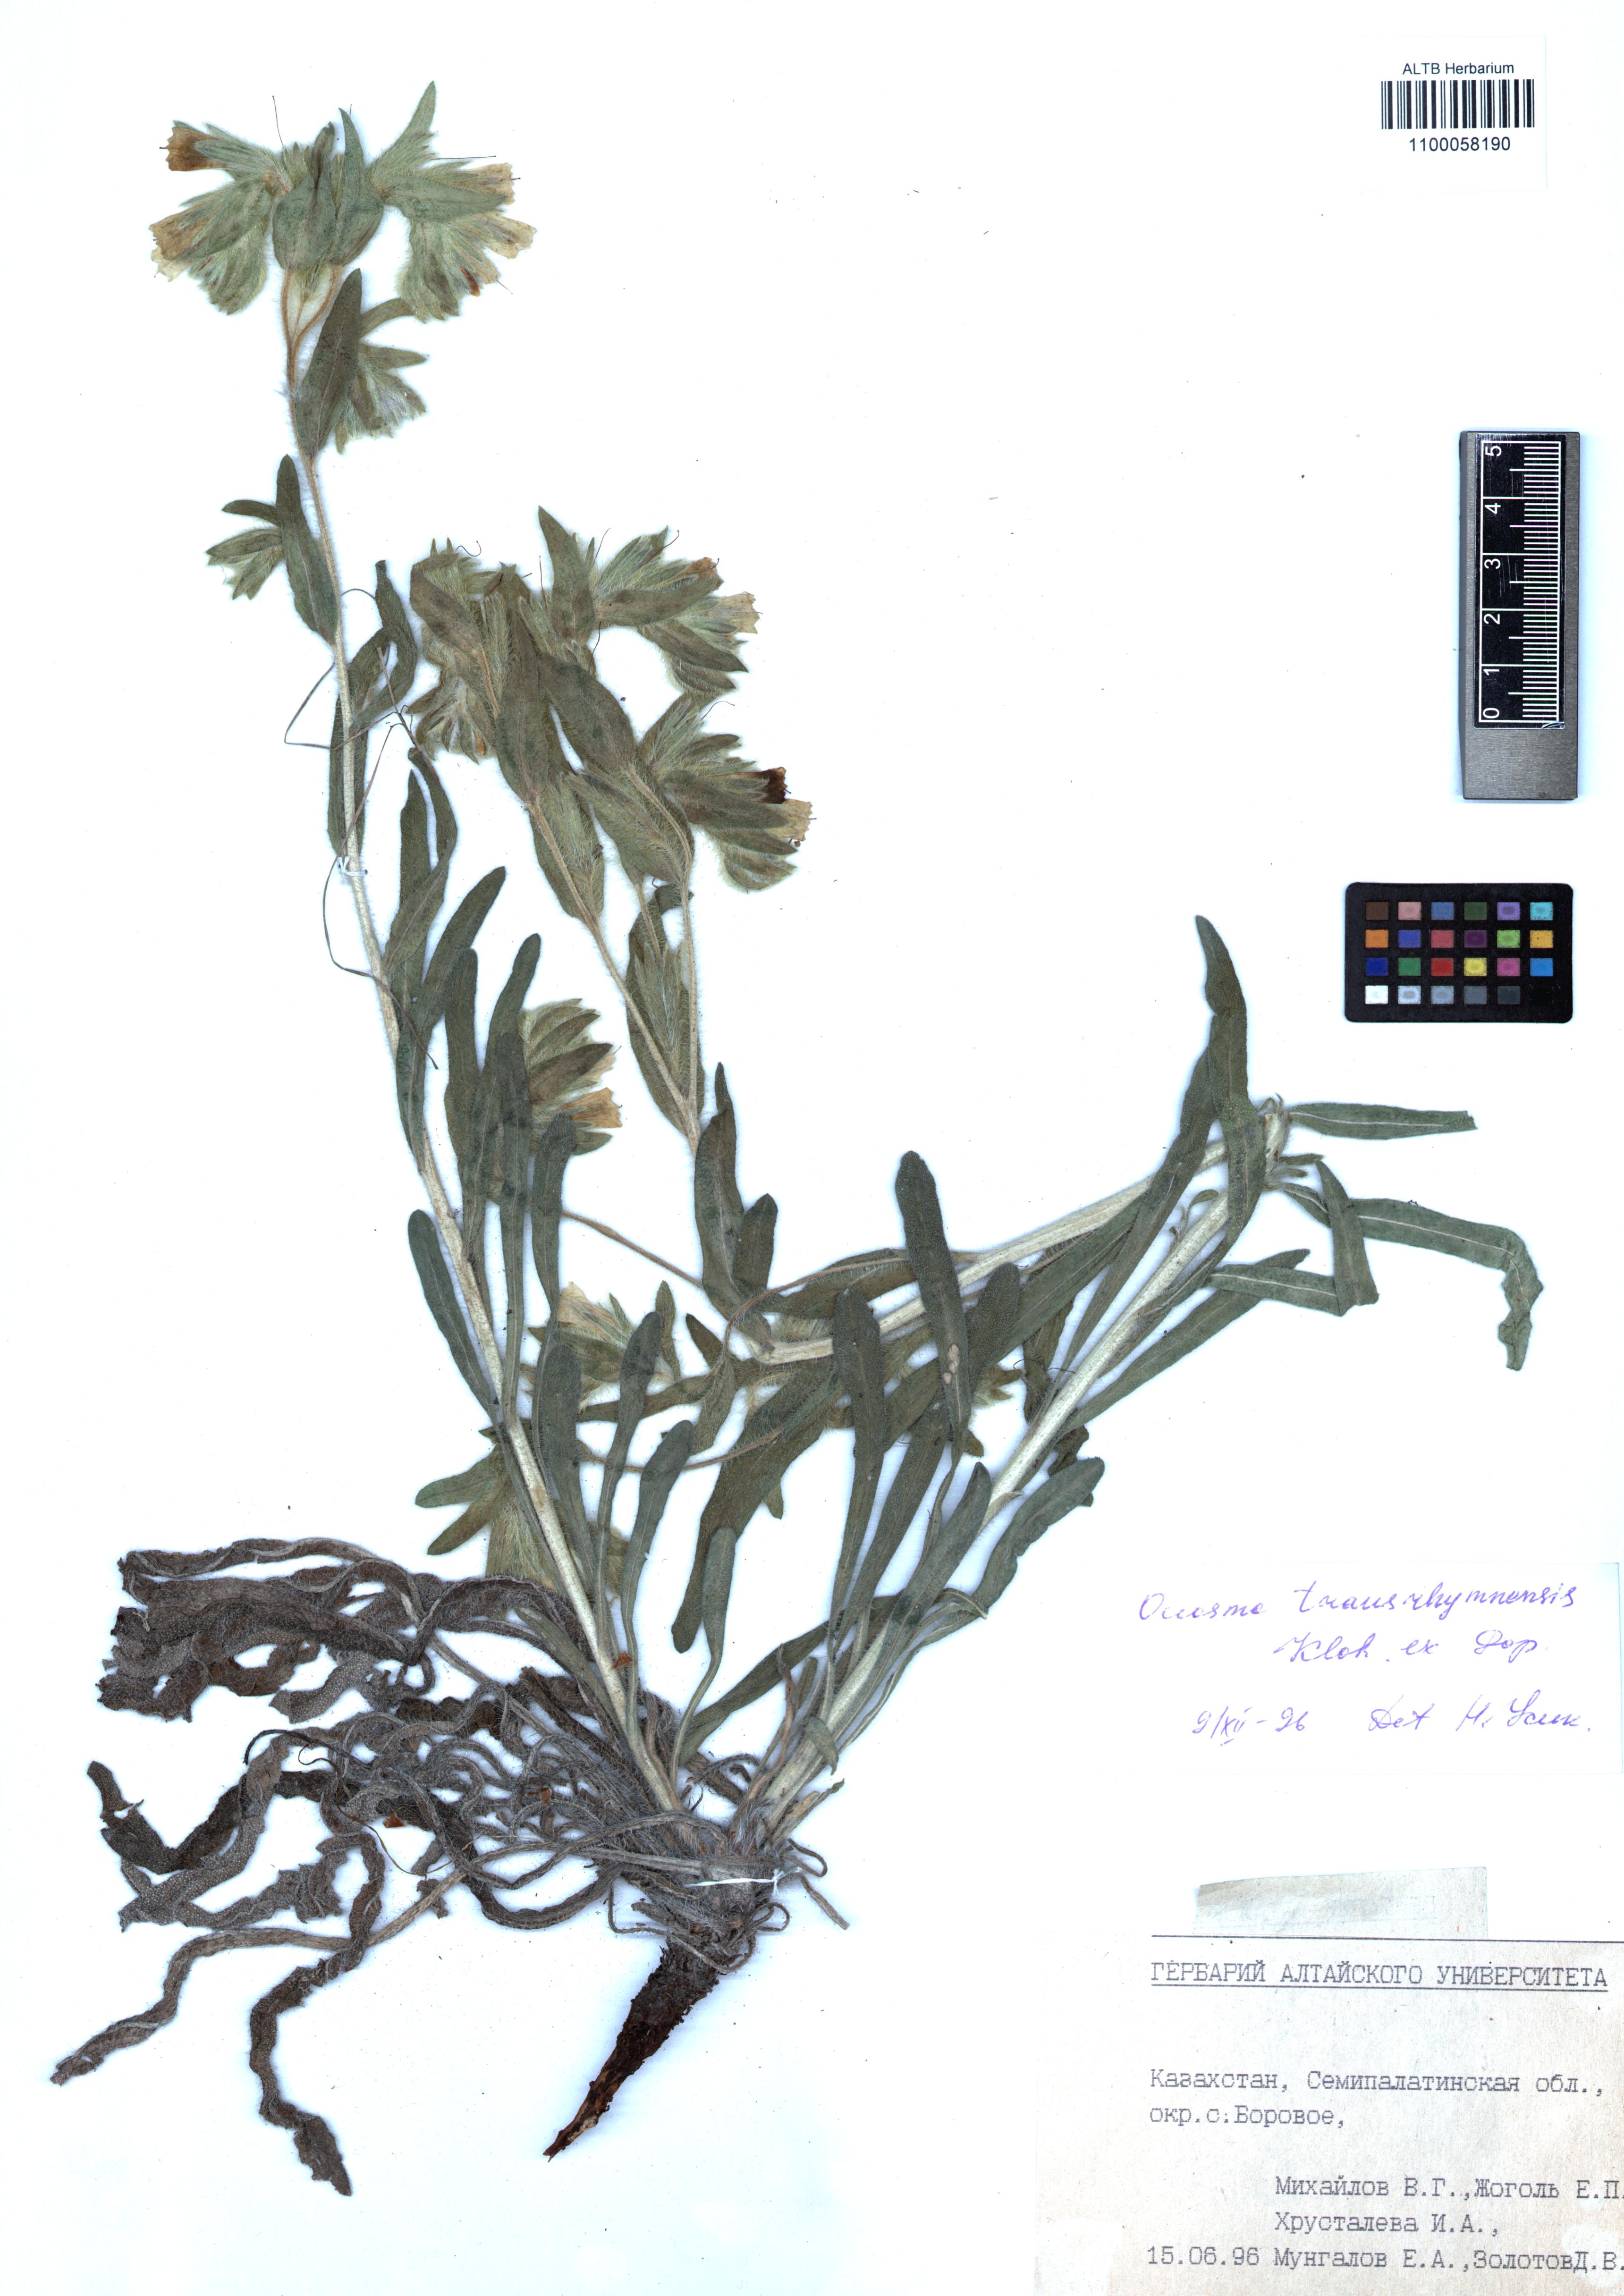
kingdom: Plantae
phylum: Tracheophyta
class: Magnoliopsida
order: Boraginales
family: Boraginaceae
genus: Onosma
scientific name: Onosma transrhymnensis
